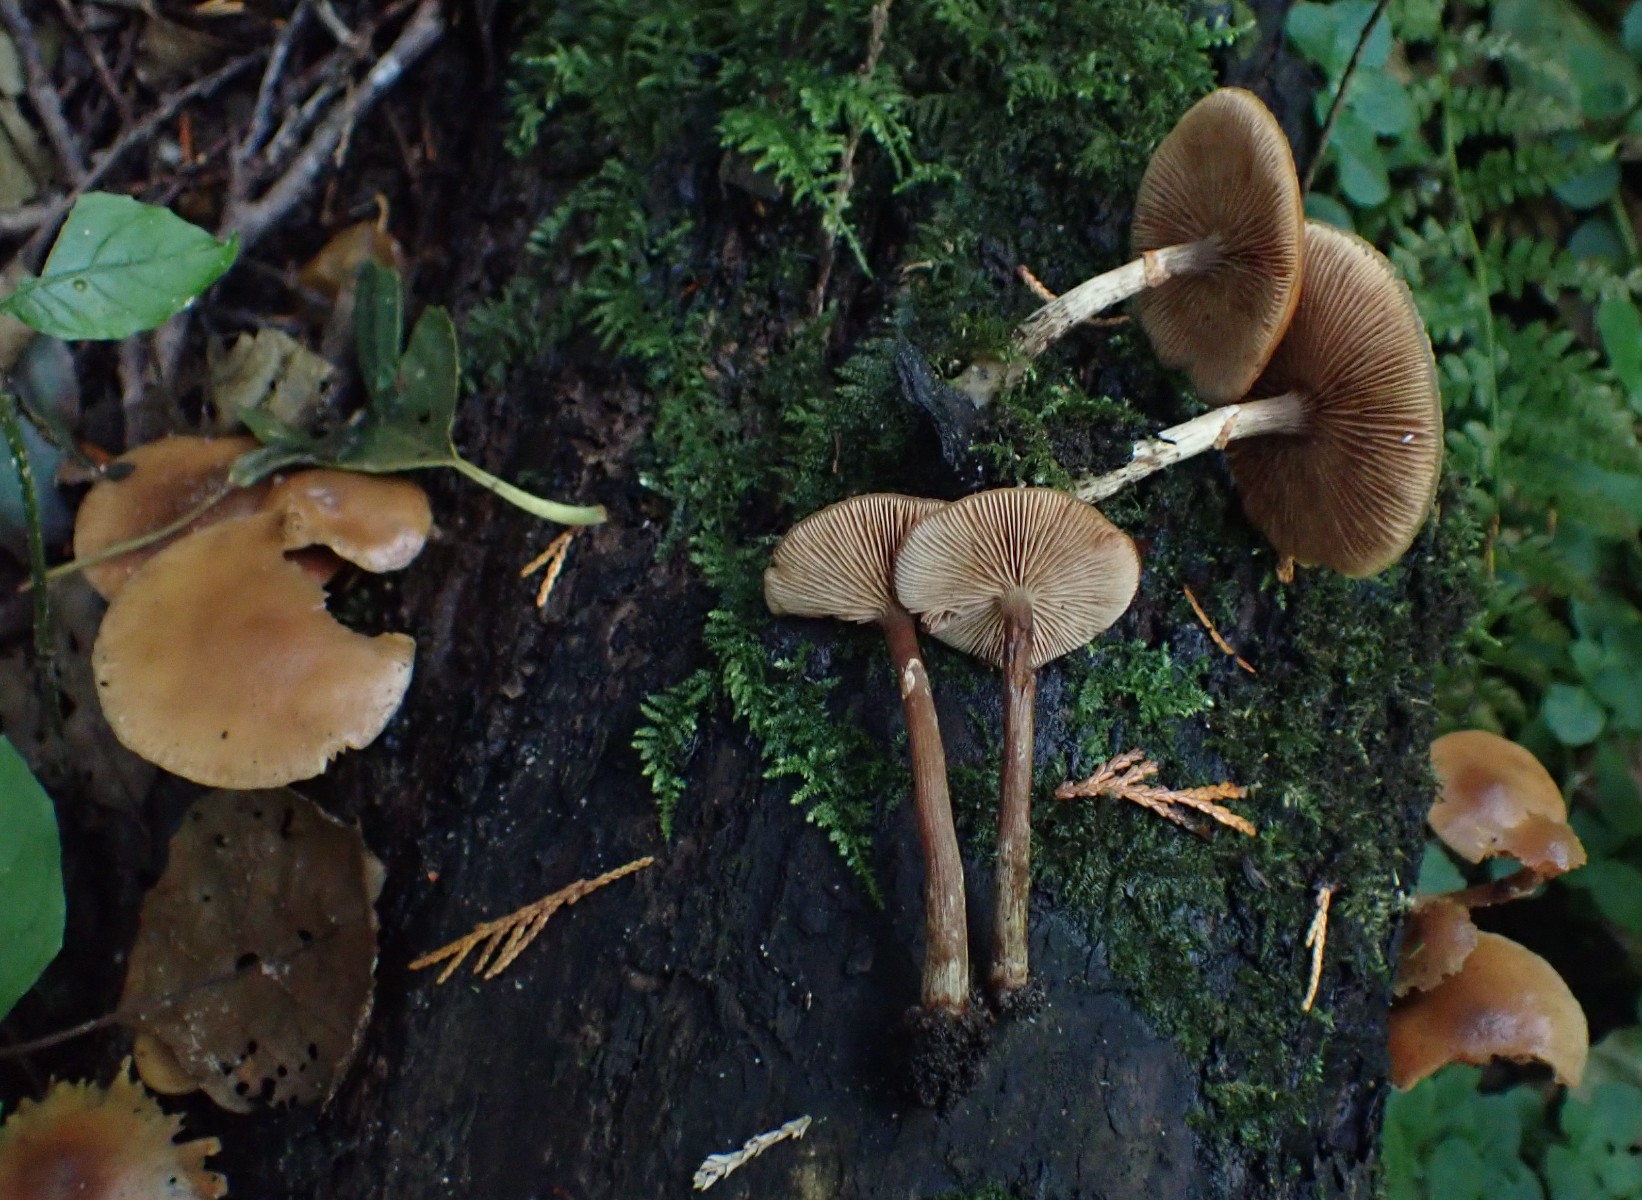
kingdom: Fungi
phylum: Basidiomycota
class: Agaricomycetes
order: Agaricales
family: Hymenogastraceae
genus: Galerina
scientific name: Galerina marginata
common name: randbæltet hjelmhat
